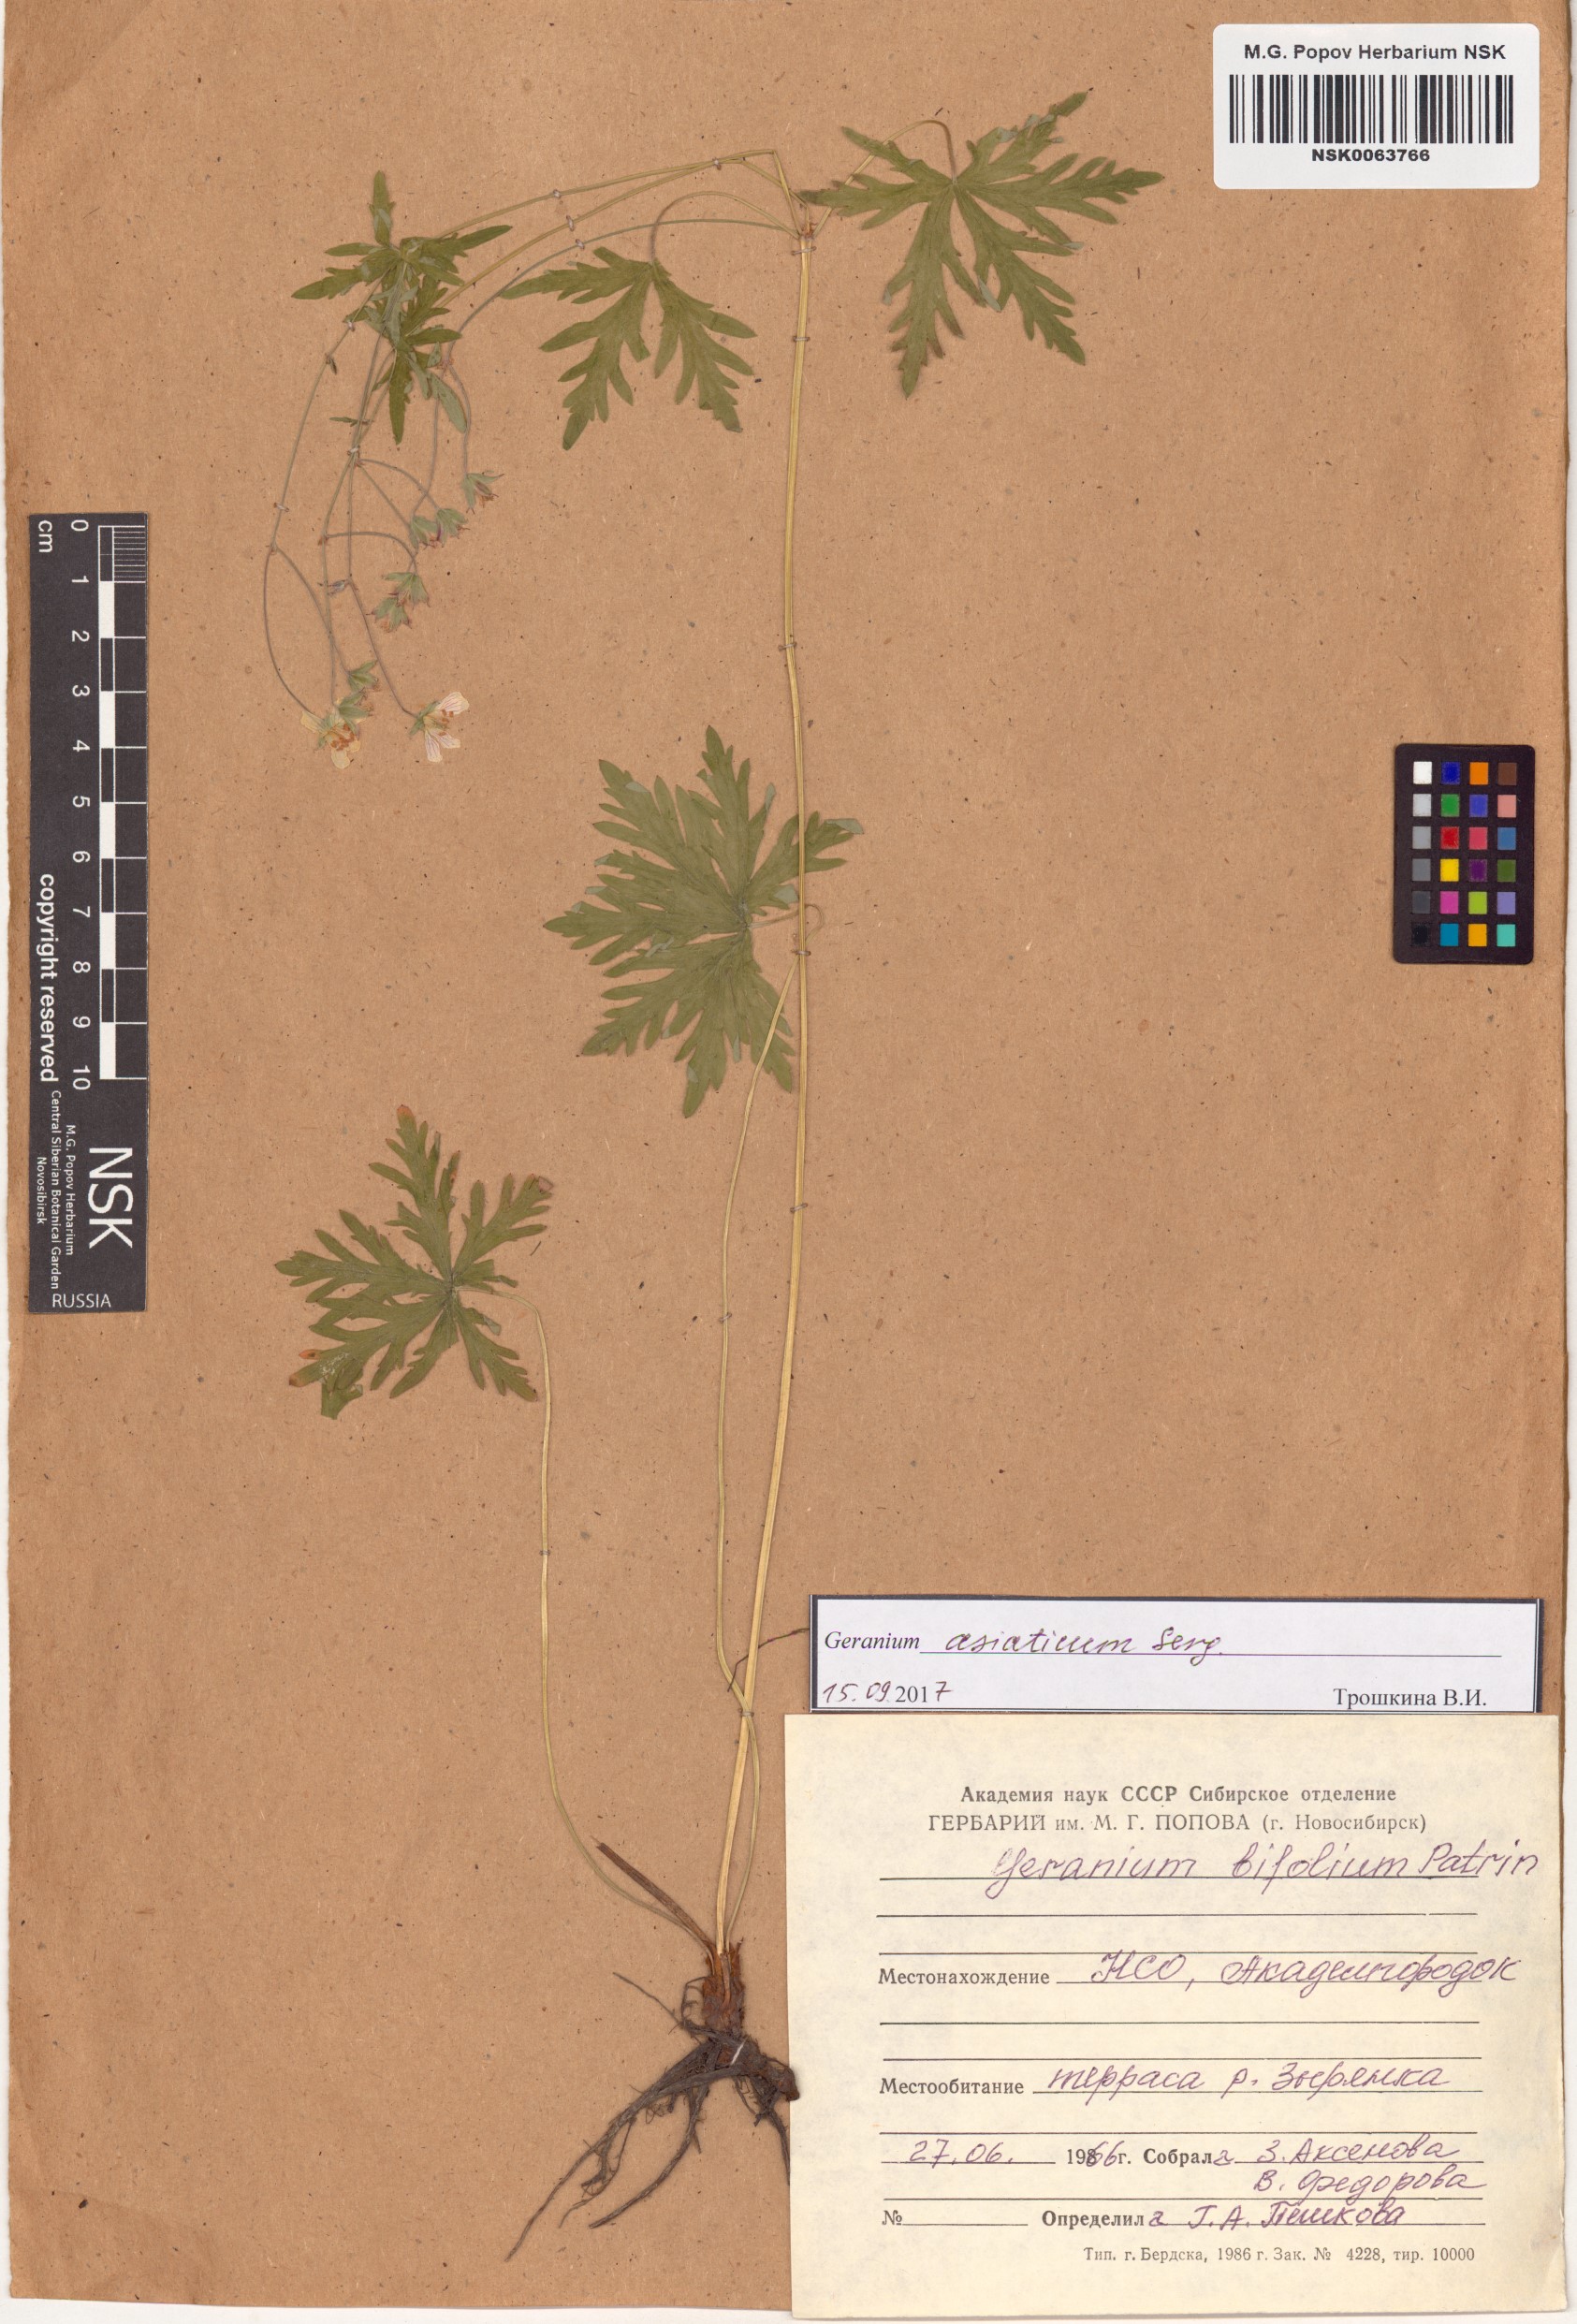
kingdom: Plantae
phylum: Tracheophyta
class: Magnoliopsida
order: Geraniales
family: Geraniaceae
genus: Geranium
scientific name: Geranium pseudosibiricum
